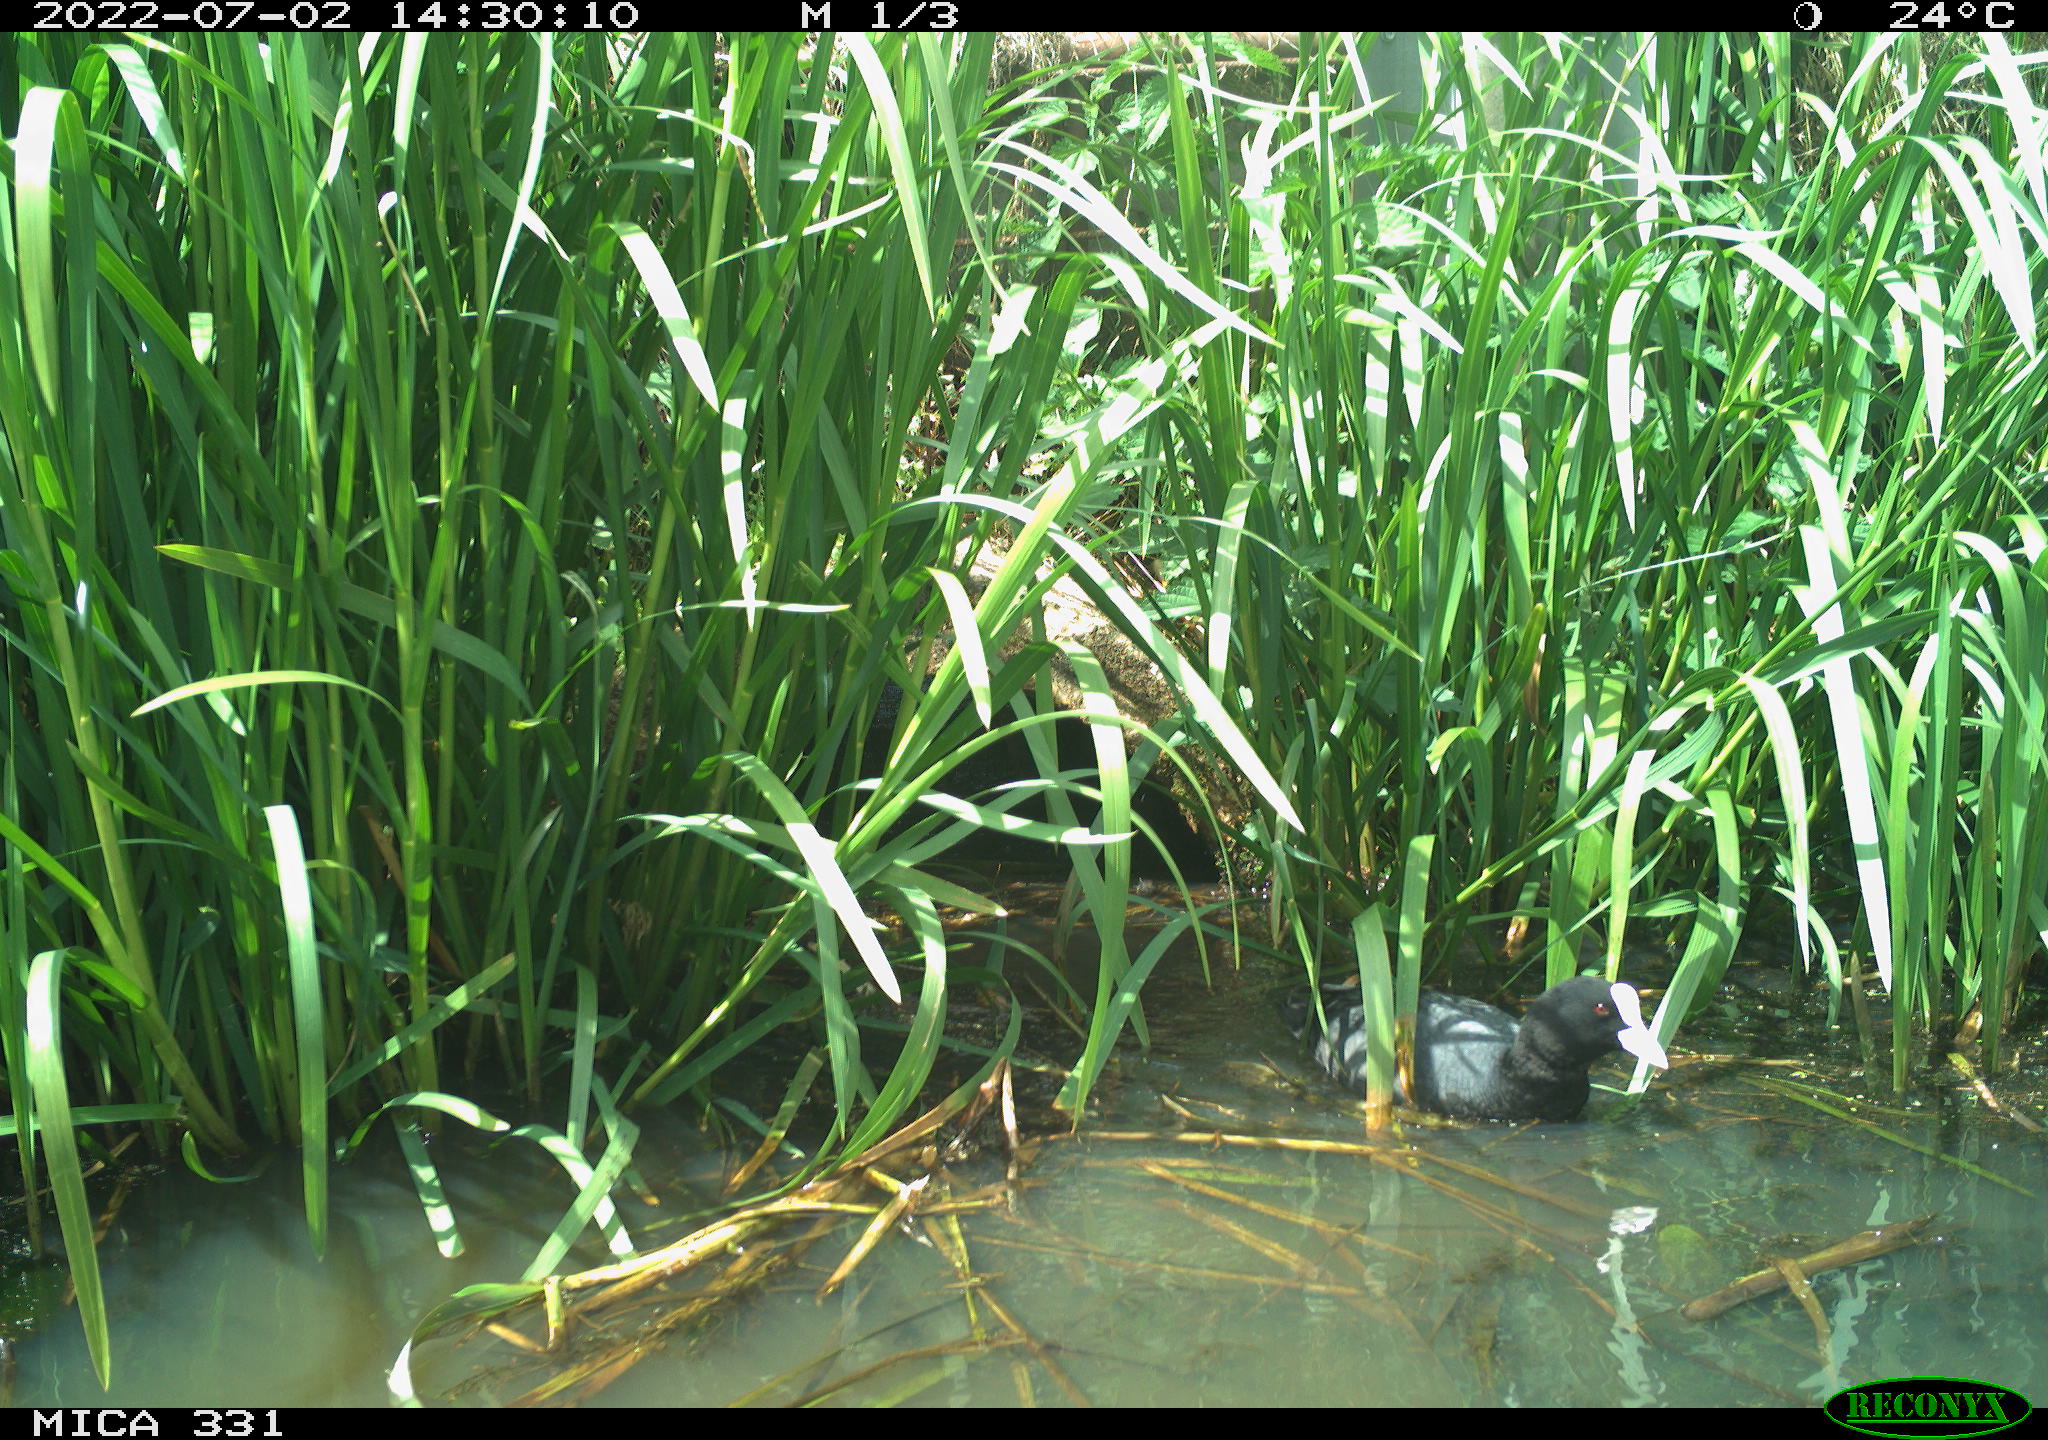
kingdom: Animalia
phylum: Chordata
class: Aves
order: Gruiformes
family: Rallidae
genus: Fulica
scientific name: Fulica atra
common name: Eurasian coot
